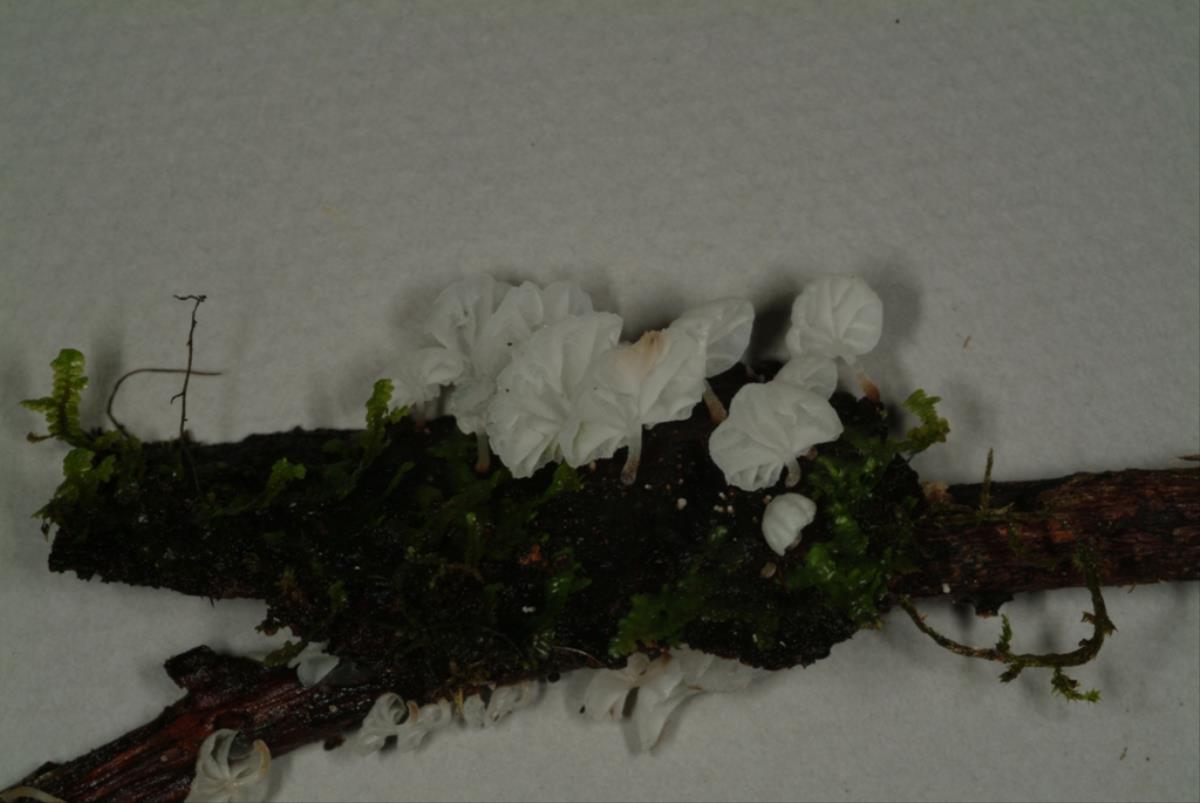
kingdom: Fungi
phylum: Basidiomycota
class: Agaricomycetes
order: Agaricales
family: Physalacriaceae
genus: Gloiocephala
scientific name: Gloiocephala
